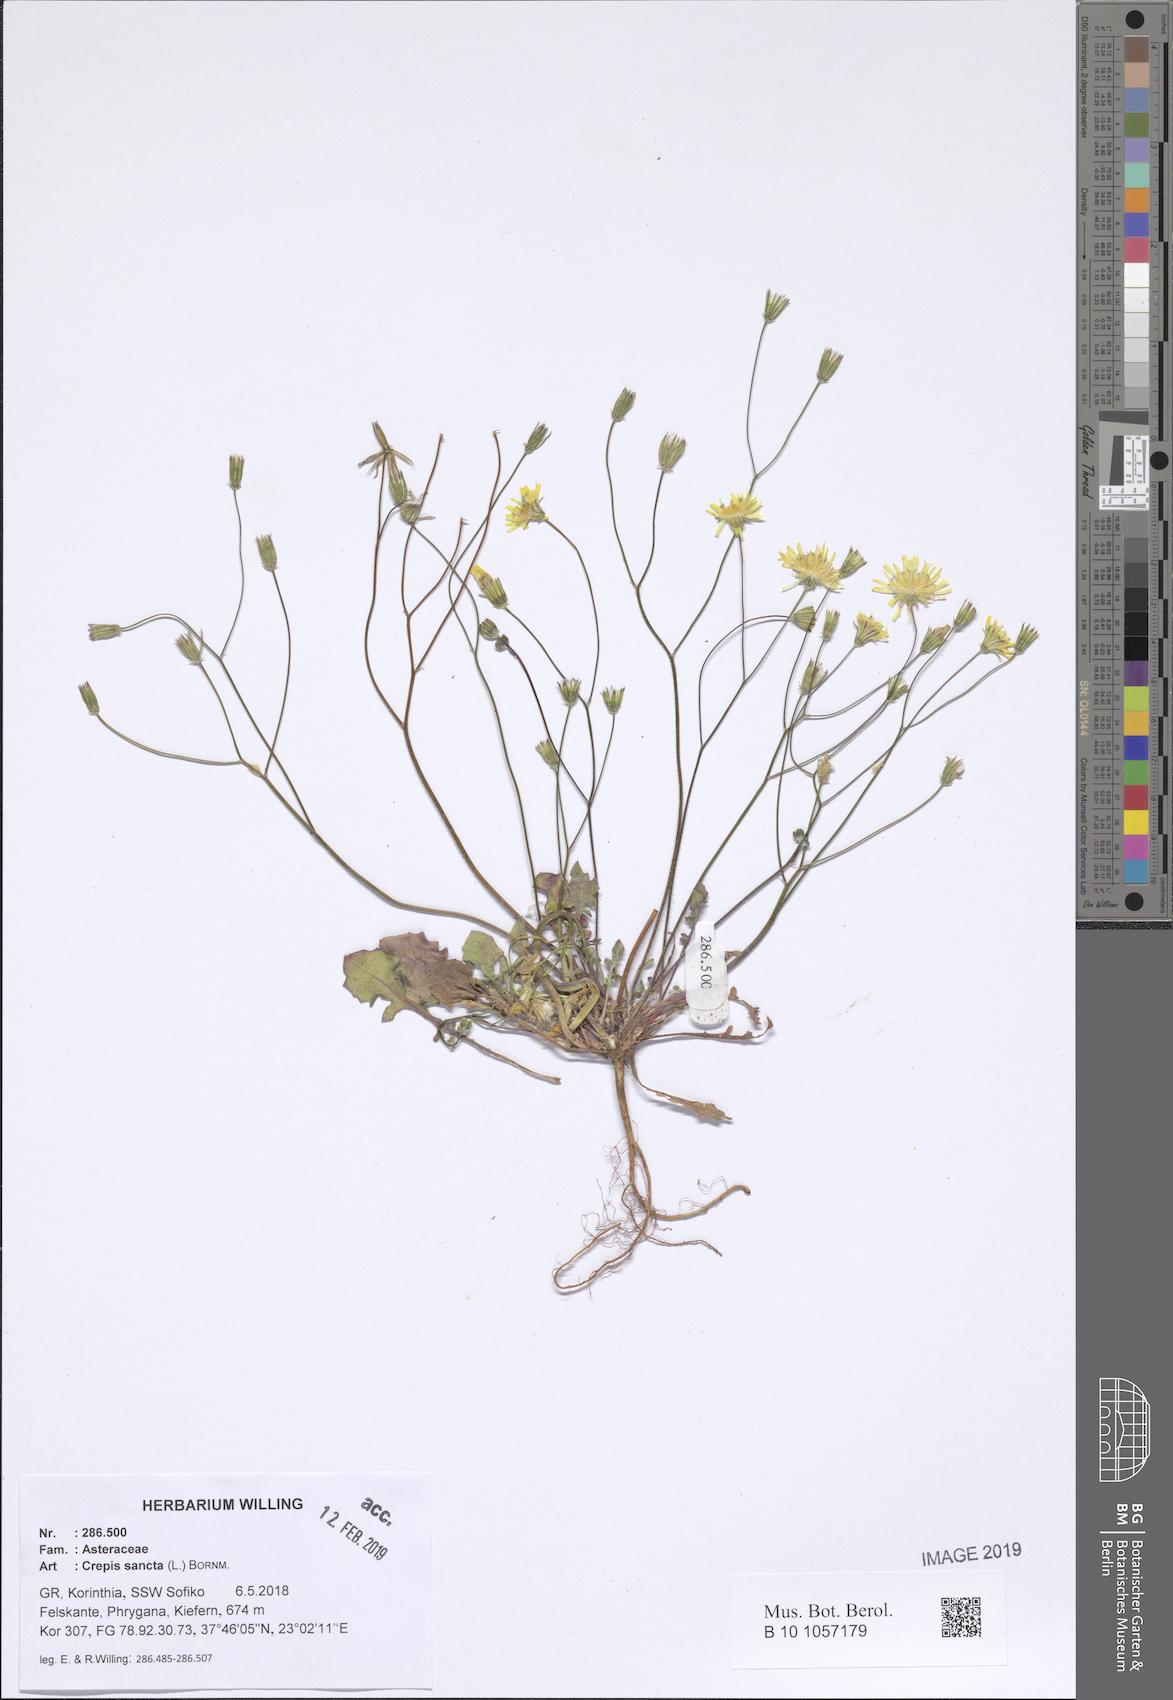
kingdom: Plantae
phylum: Tracheophyta
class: Liliopsida
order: Asparagales
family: Asphodelaceae
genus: Asphodelus
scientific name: Asphodelus fistulosus
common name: Onionweed
